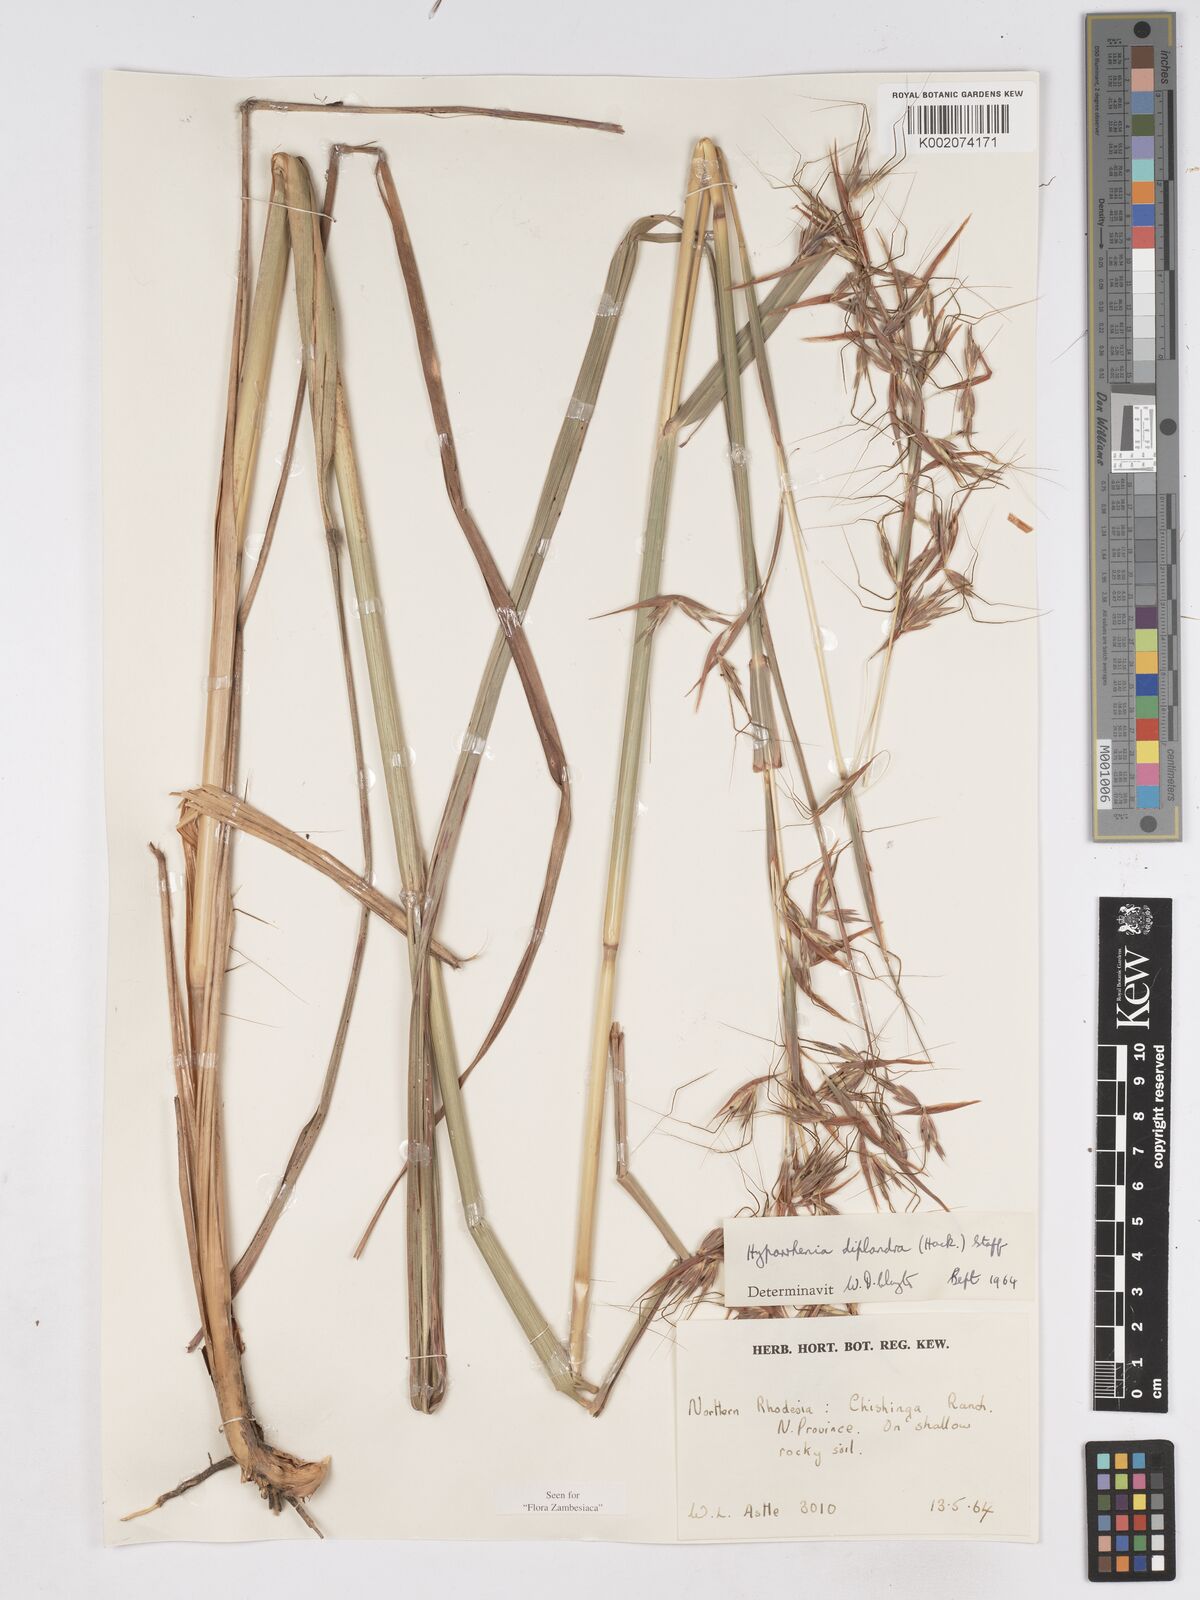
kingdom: Plantae
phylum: Tracheophyta
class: Liliopsida
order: Poales
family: Poaceae
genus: Hyparrhenia
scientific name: Hyparrhenia diplandra
